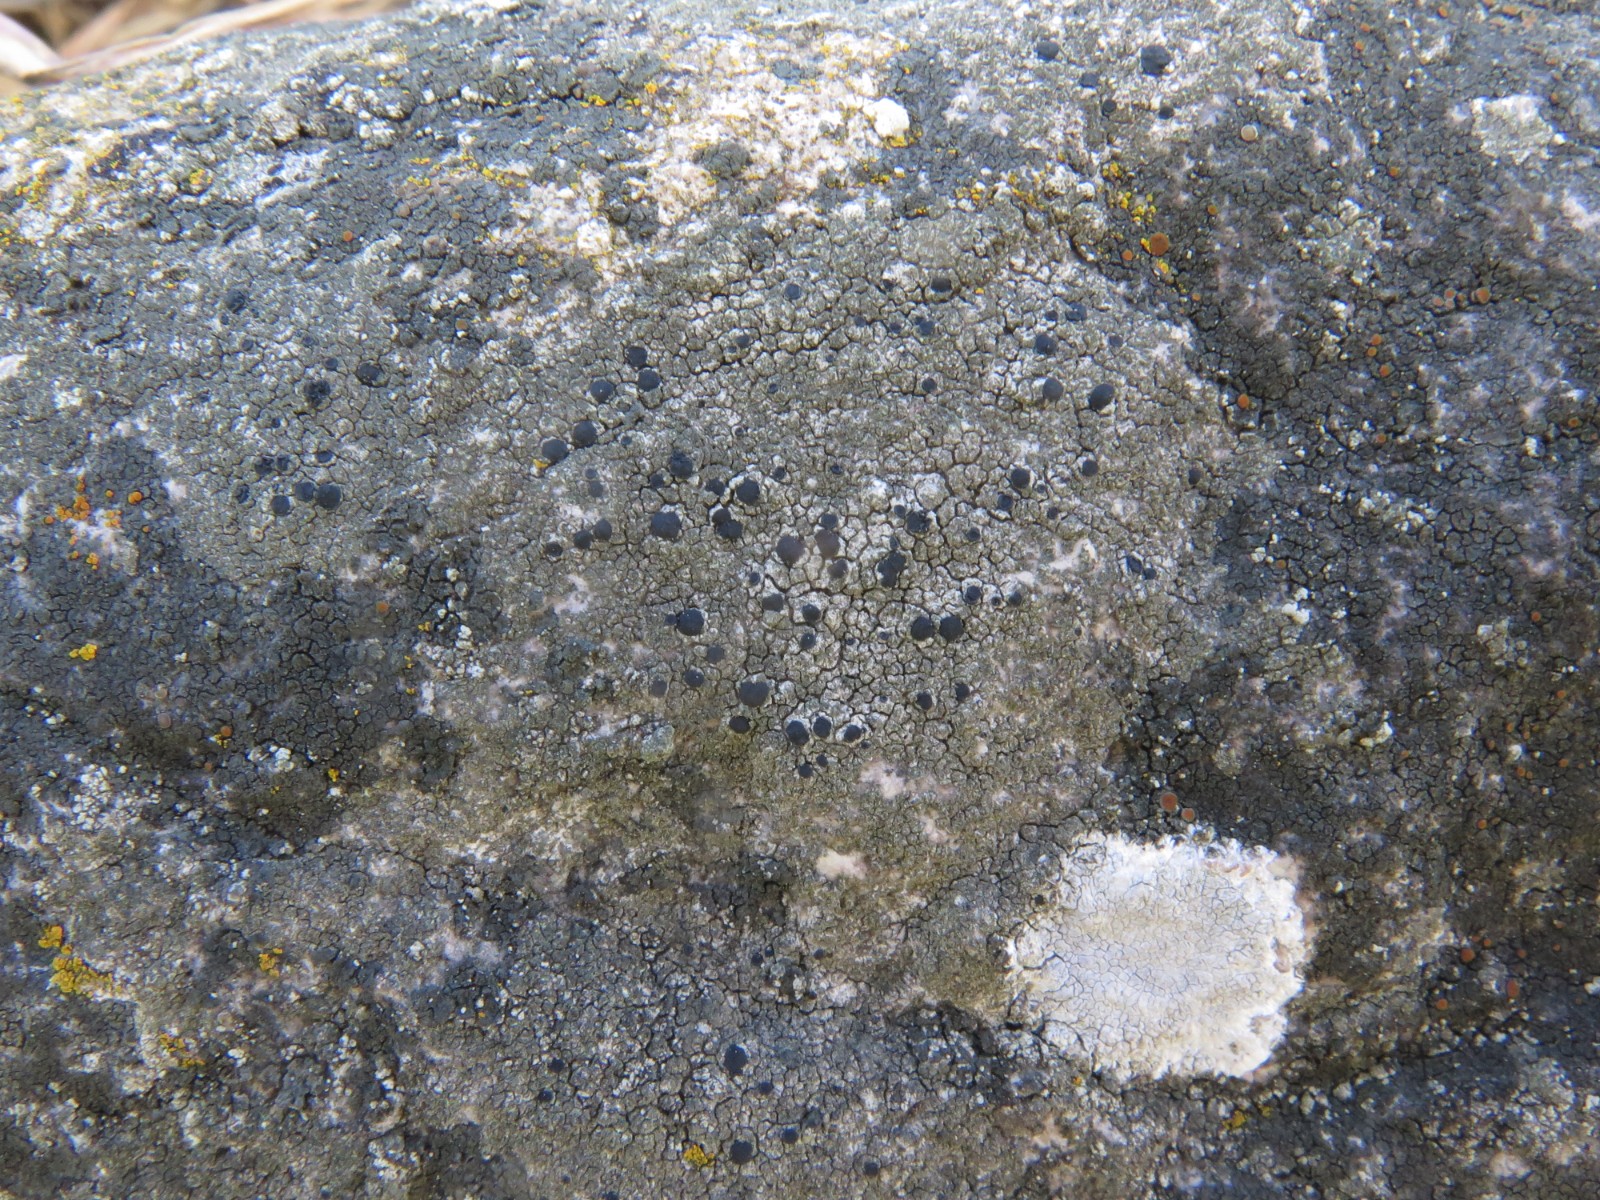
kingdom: Fungi
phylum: Ascomycota
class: Lecanoromycetes
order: Lecanorales
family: Lecanoraceae
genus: Lecidella
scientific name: Lecidella scabra
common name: skurvet skivelav
